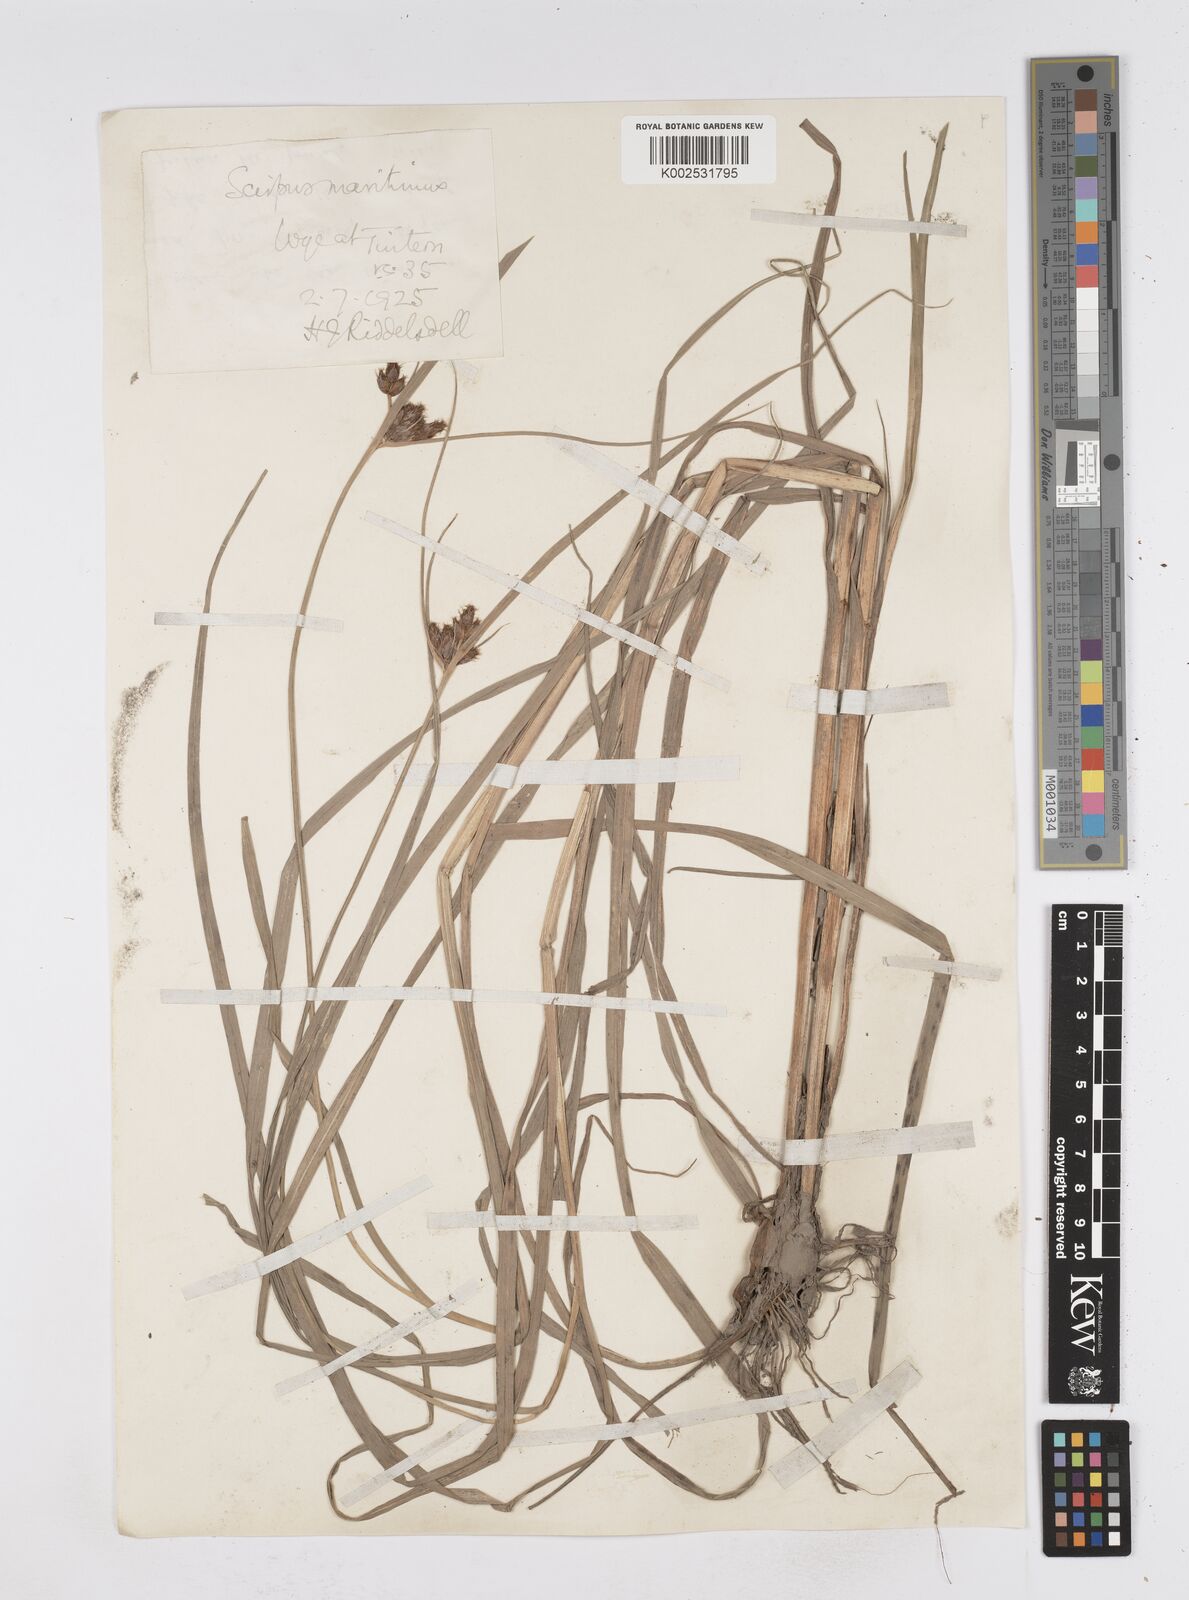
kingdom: Plantae
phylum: Tracheophyta
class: Liliopsida
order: Poales
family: Cyperaceae
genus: Bolboschoenus
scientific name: Bolboschoenus maritimus
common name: Sea club-rush
